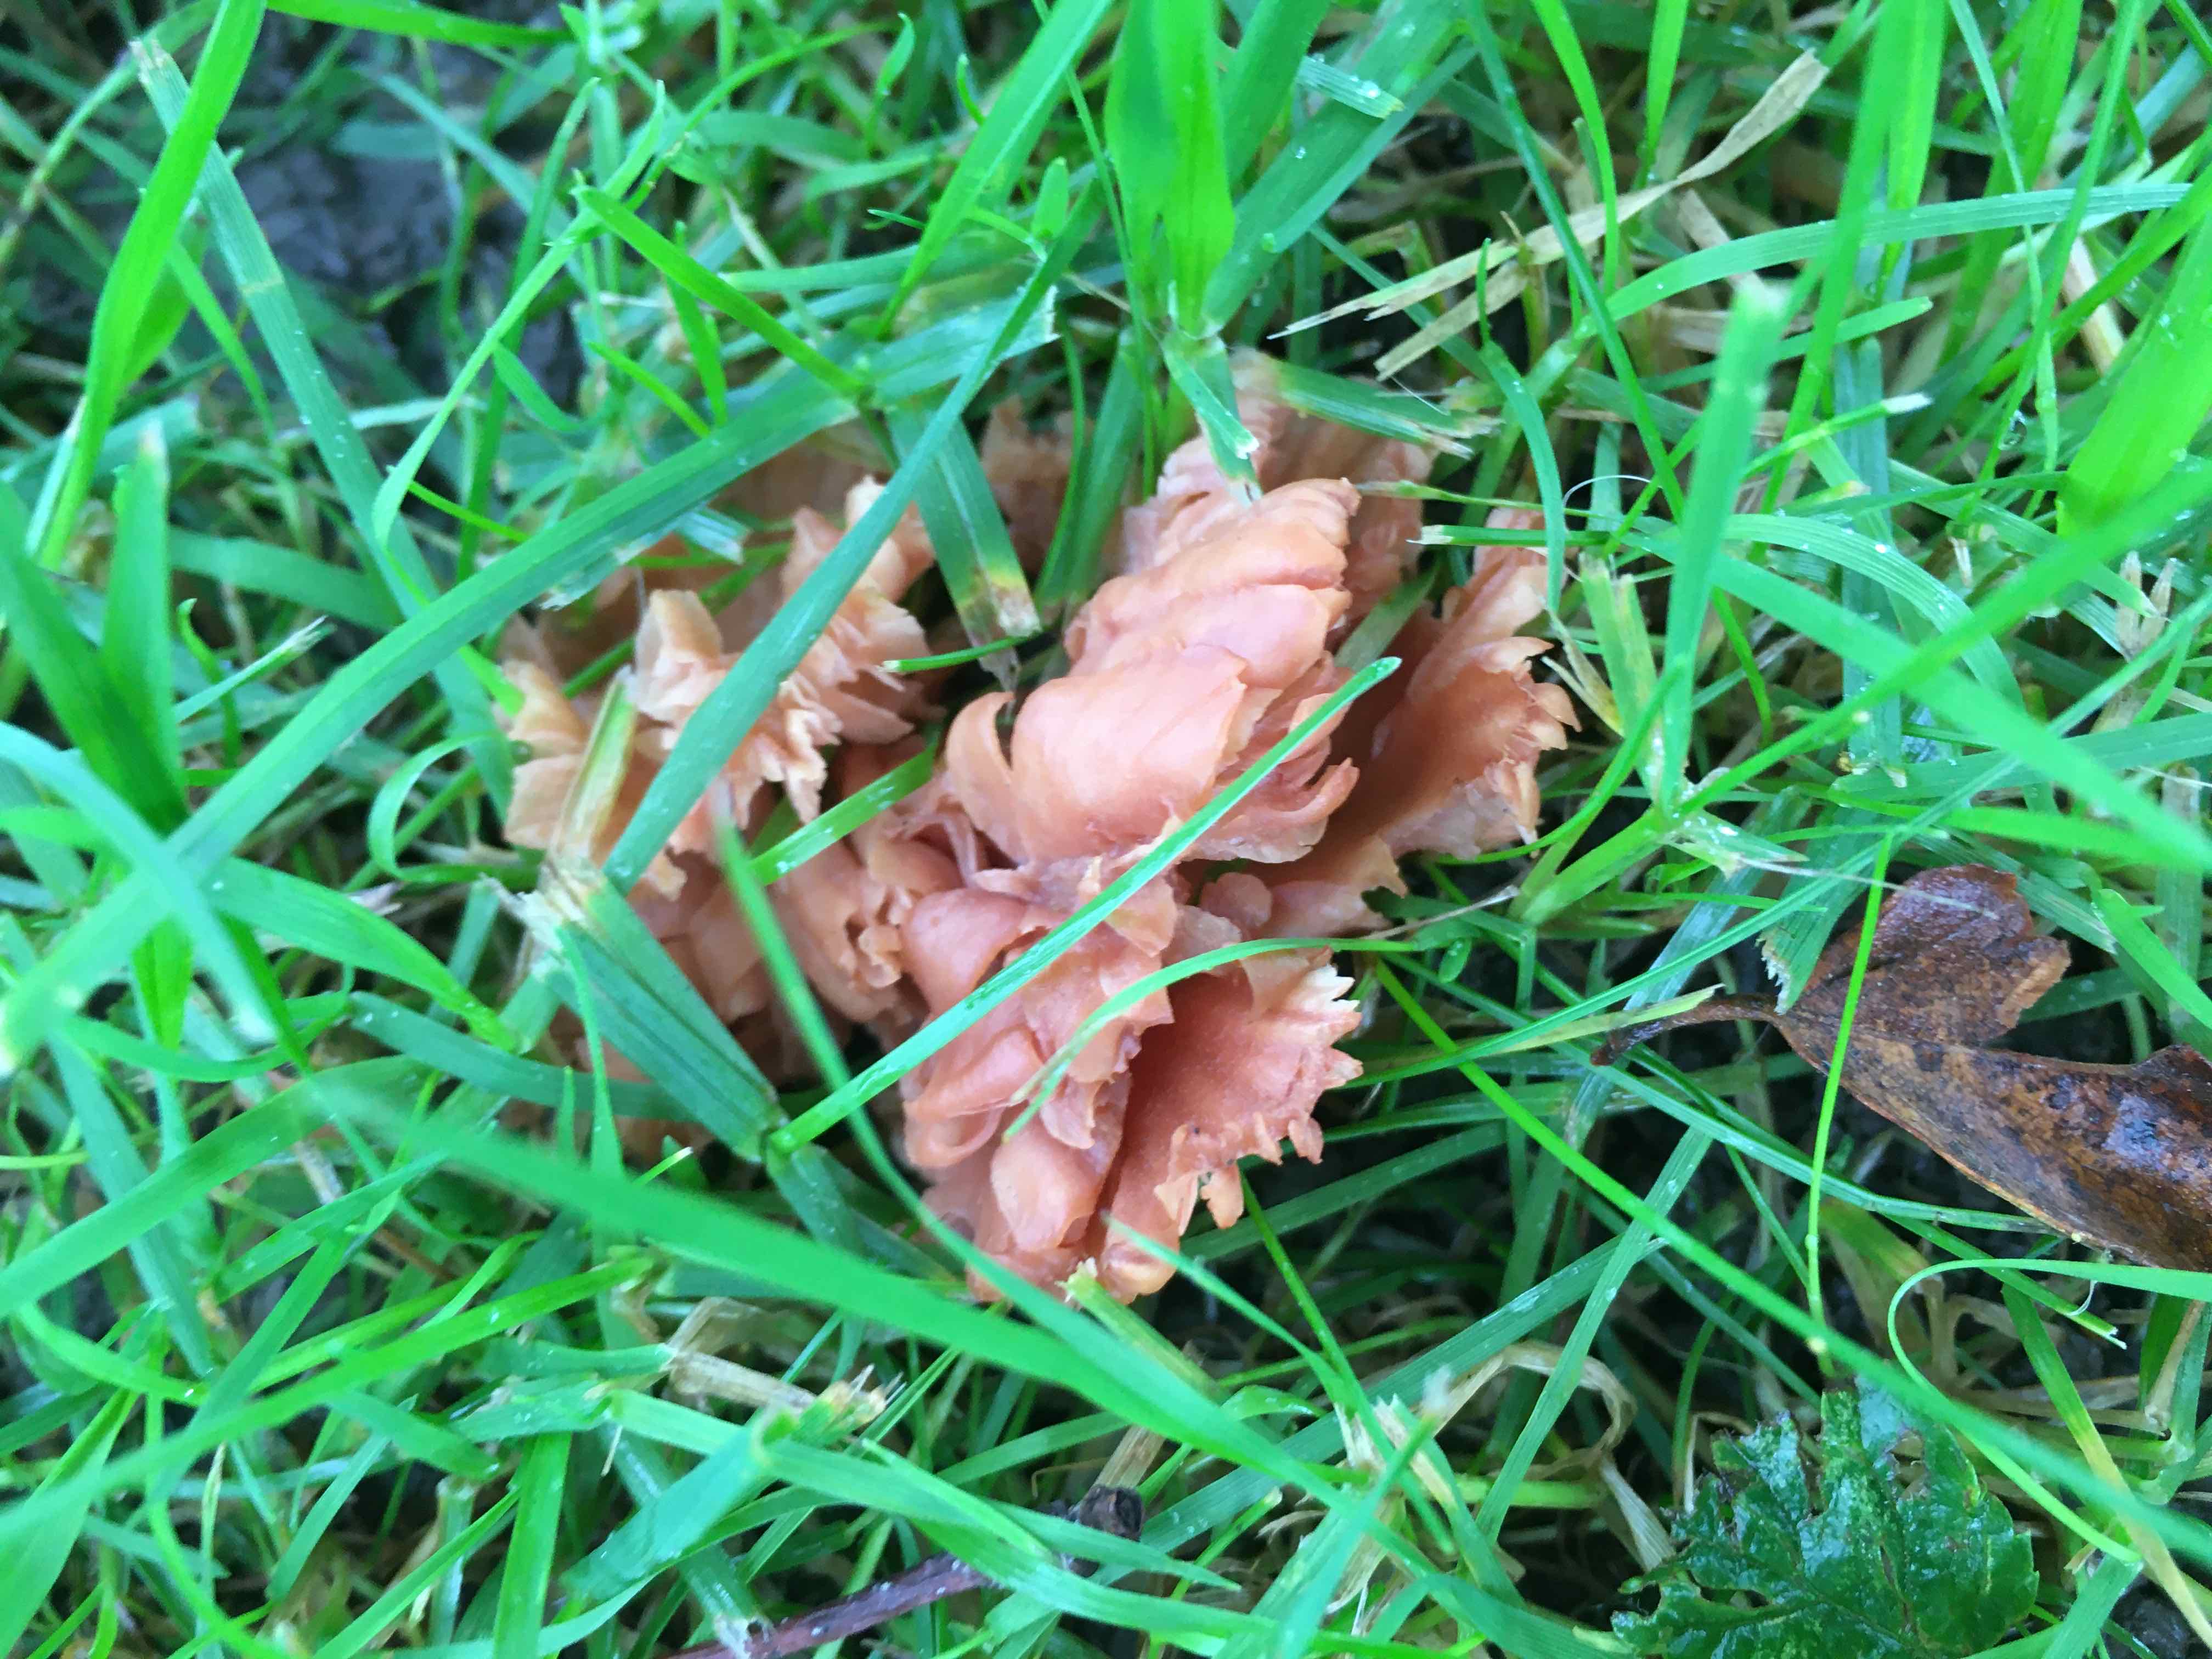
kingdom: Fungi
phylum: Basidiomycota
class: Agaricomycetes
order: Agaricales
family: Hydnangiaceae
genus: Laccaria
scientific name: Laccaria laccata
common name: rød ametysthat
